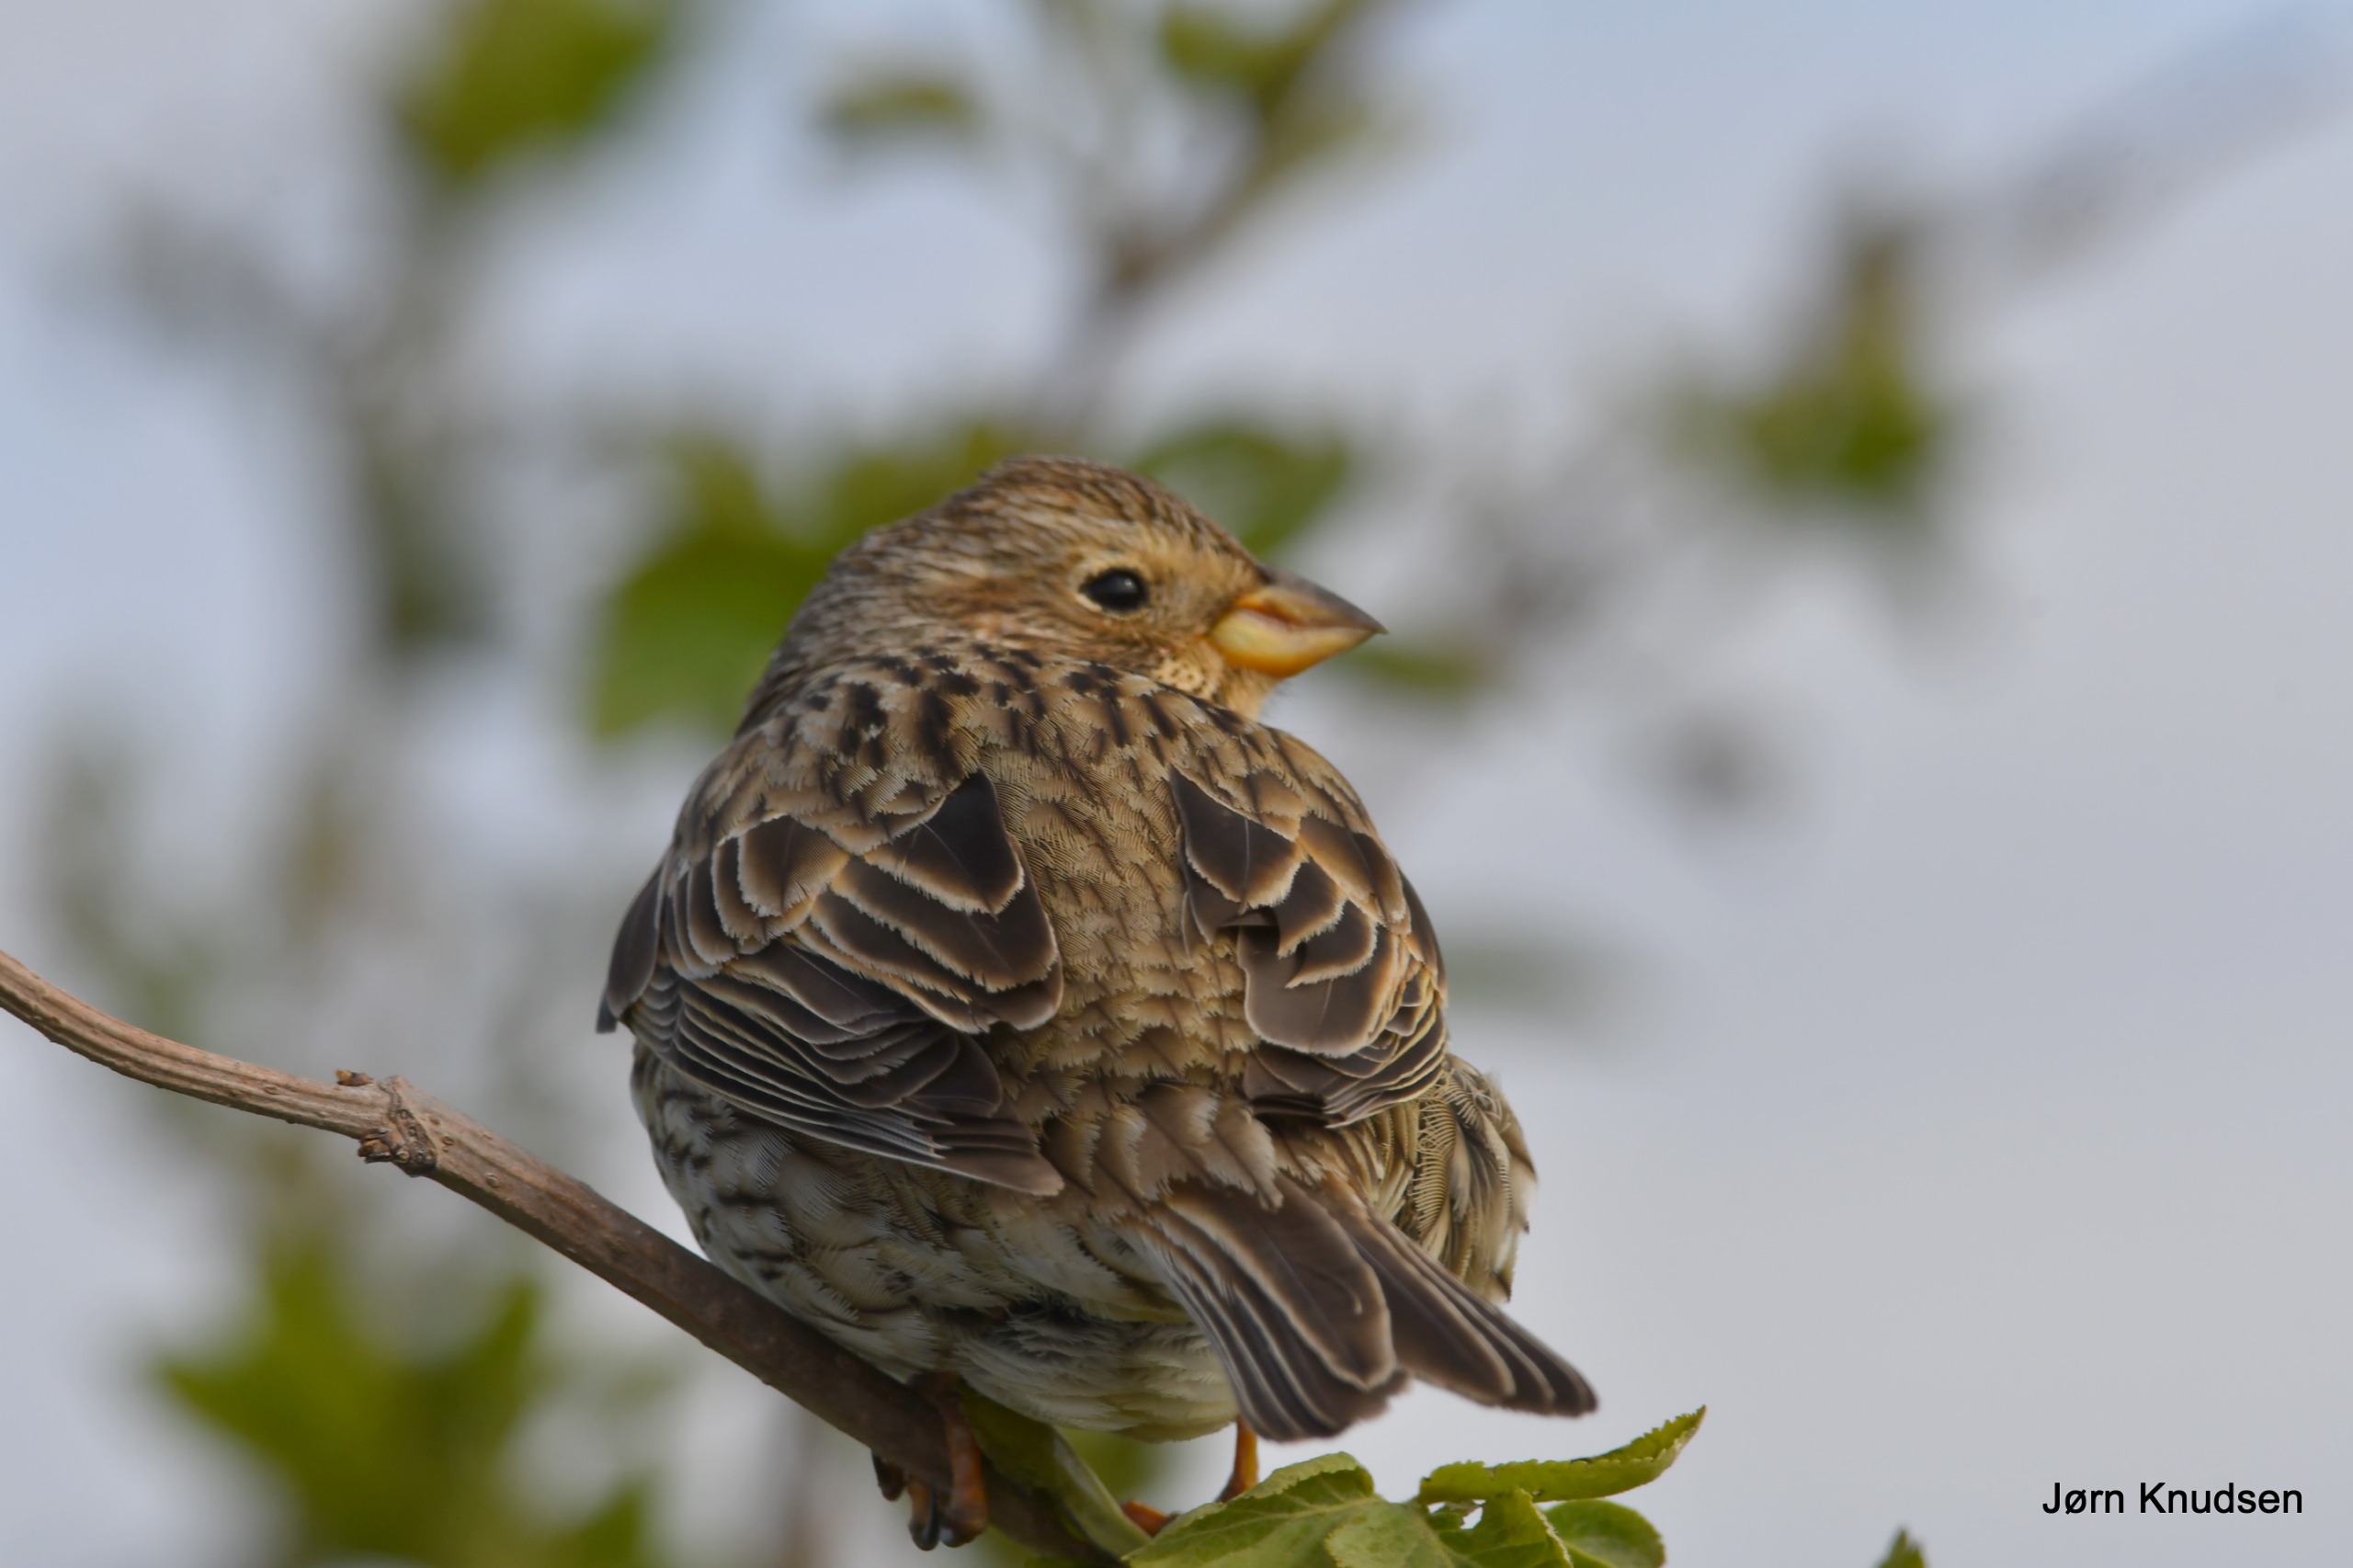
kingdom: Animalia
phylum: Chordata
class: Aves
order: Passeriformes
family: Emberizidae
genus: Emberiza
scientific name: Emberiza calandra
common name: Bomlærke
